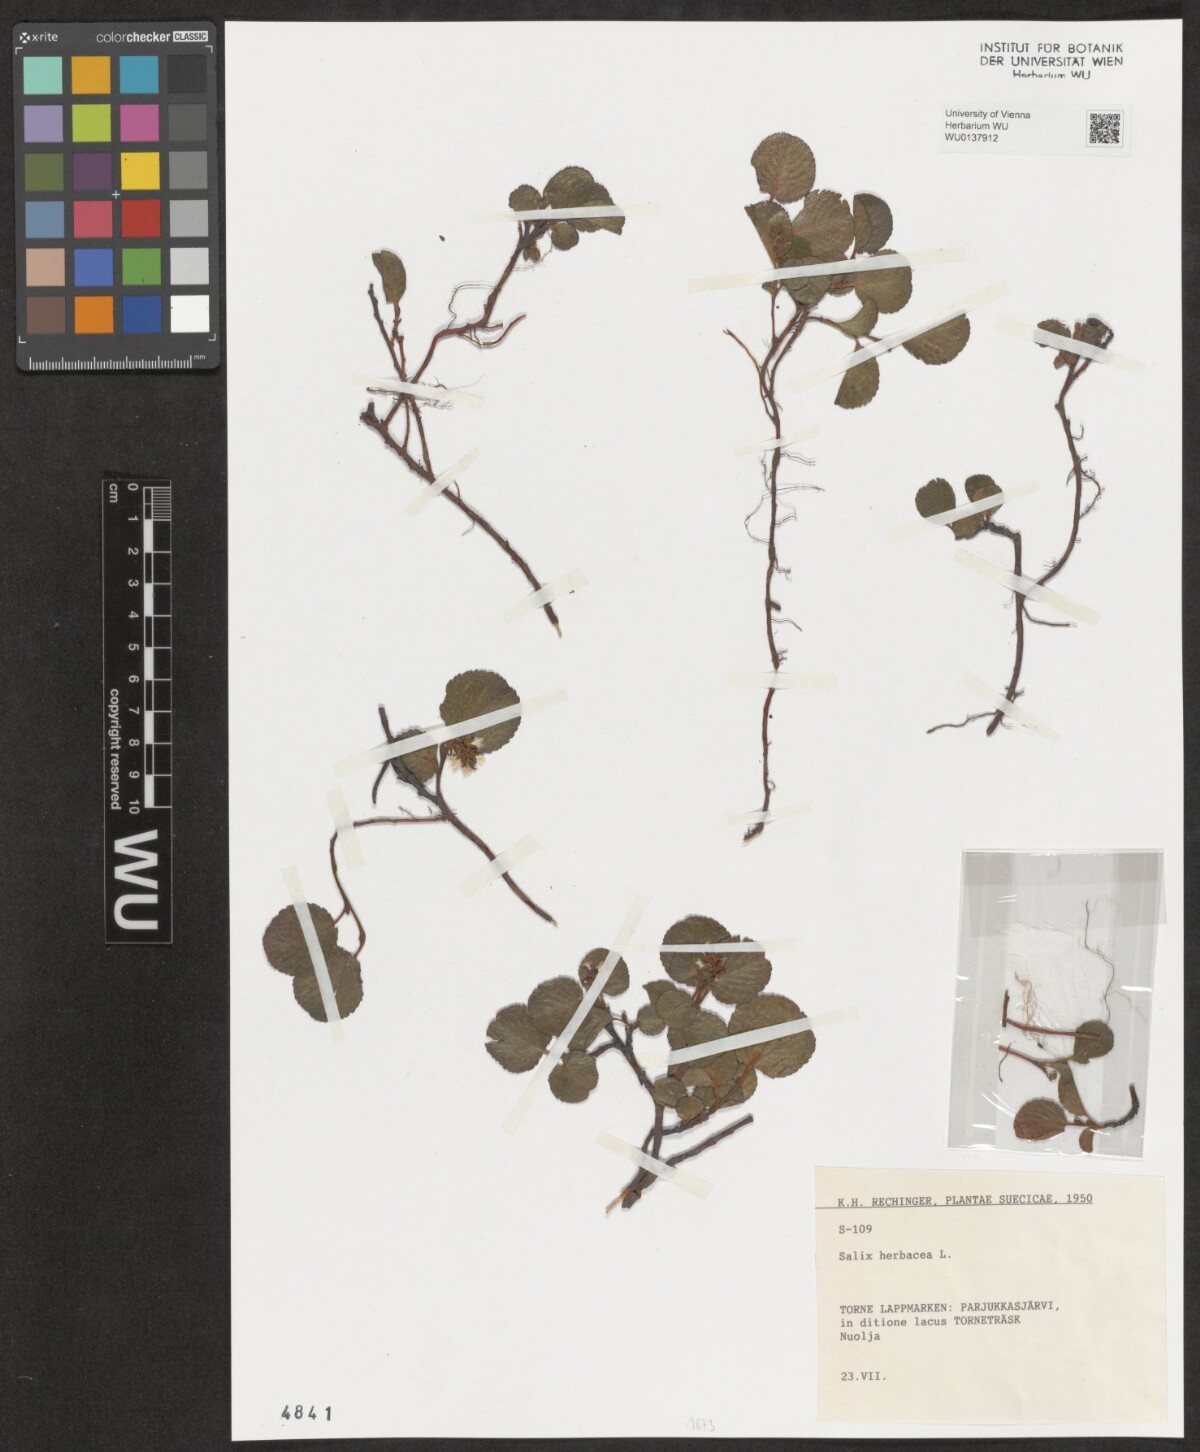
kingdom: Plantae
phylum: Tracheophyta
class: Magnoliopsida
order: Malpighiales
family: Salicaceae
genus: Salix
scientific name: Salix herbacea
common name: Dwarf willow
